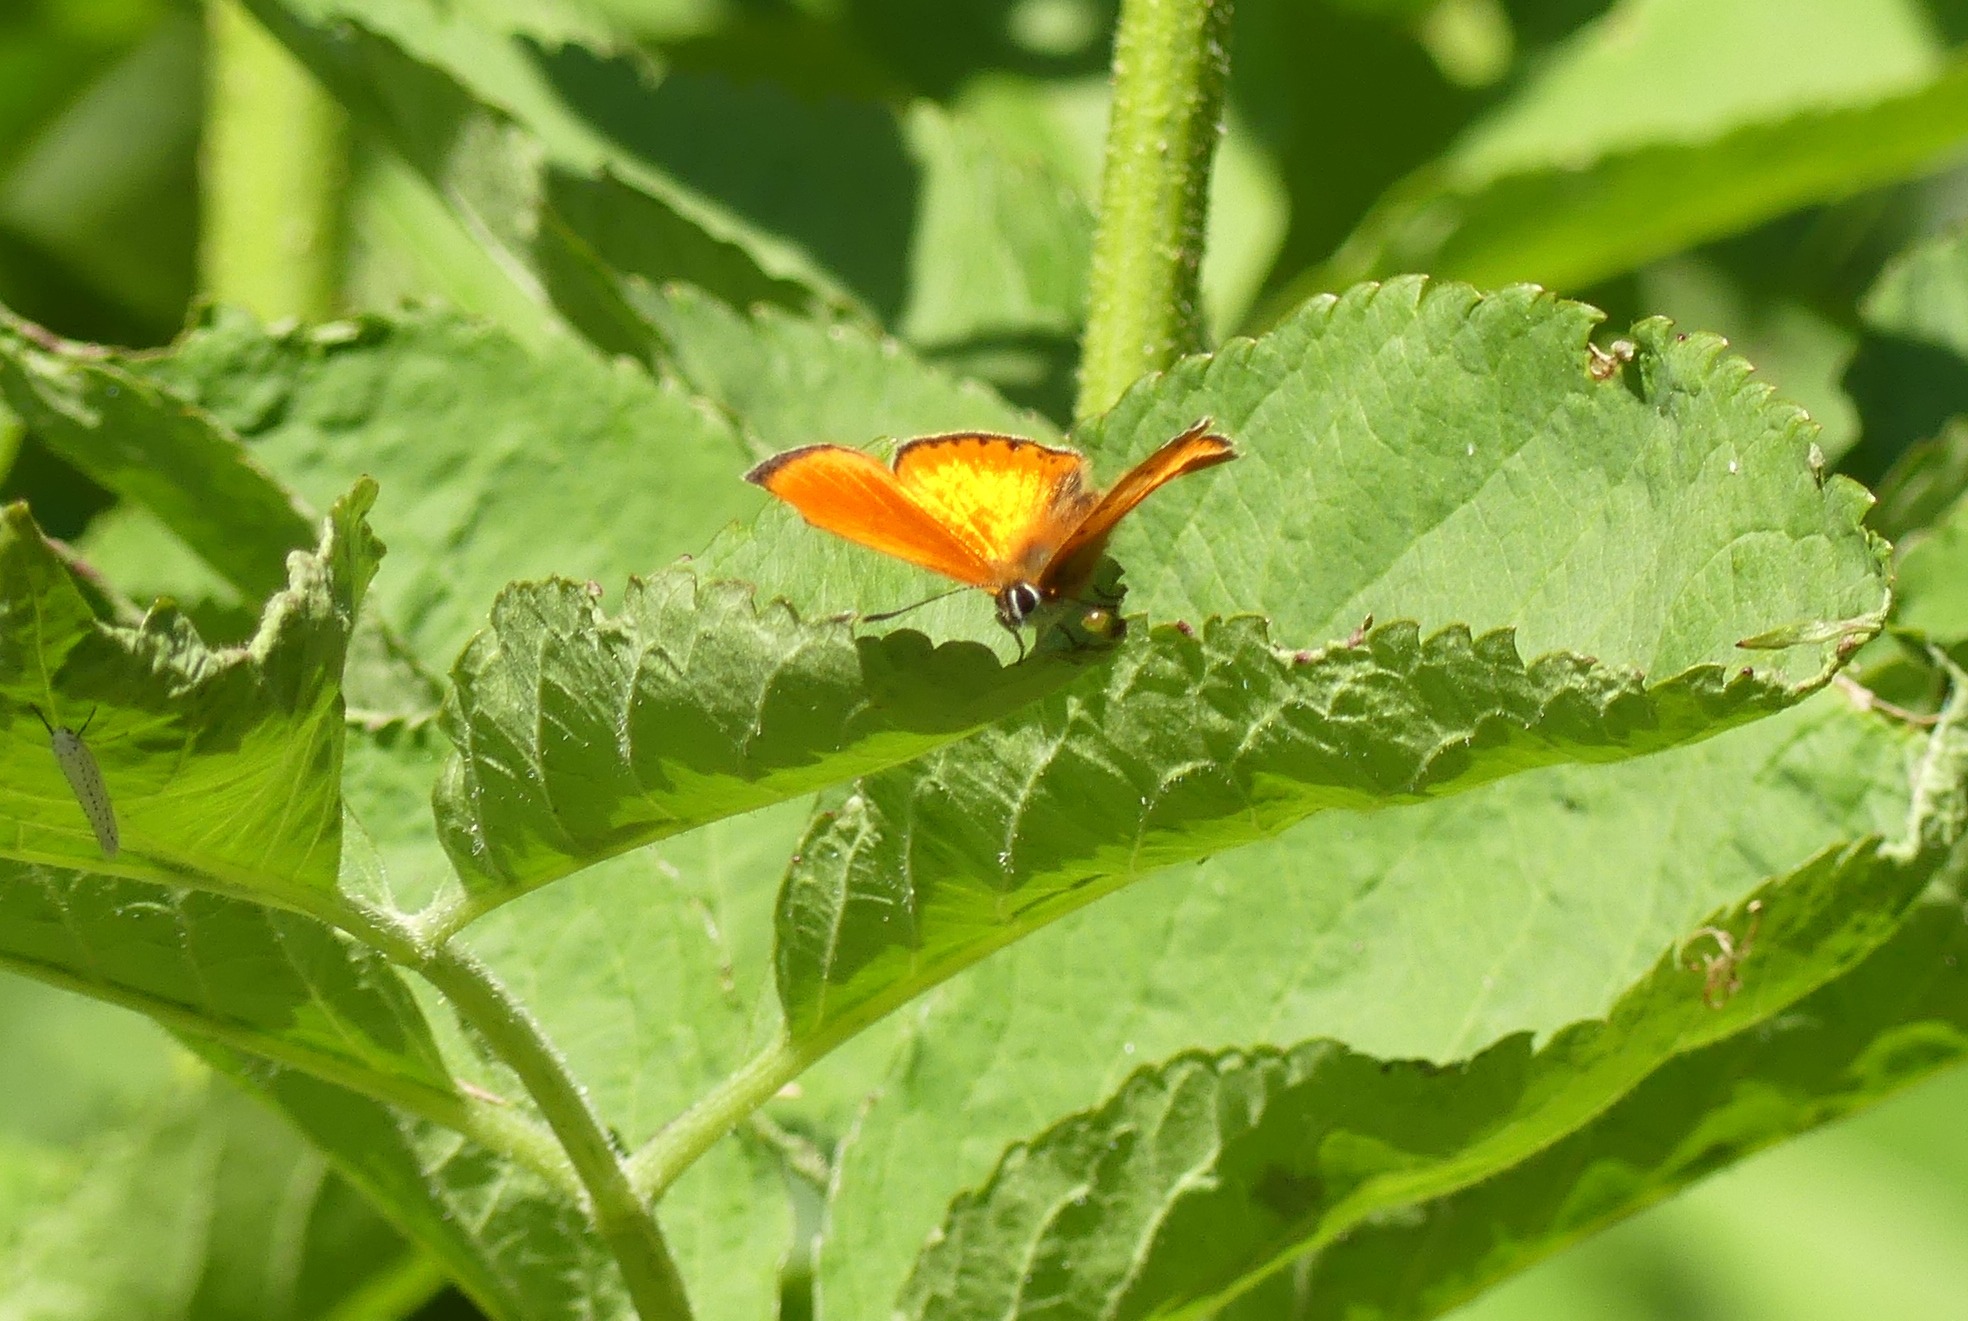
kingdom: Animalia
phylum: Arthropoda
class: Insecta
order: Lepidoptera
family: Lycaenidae
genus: Lycaena
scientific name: Lycaena virgaureae
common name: Dukatsommerfugl
